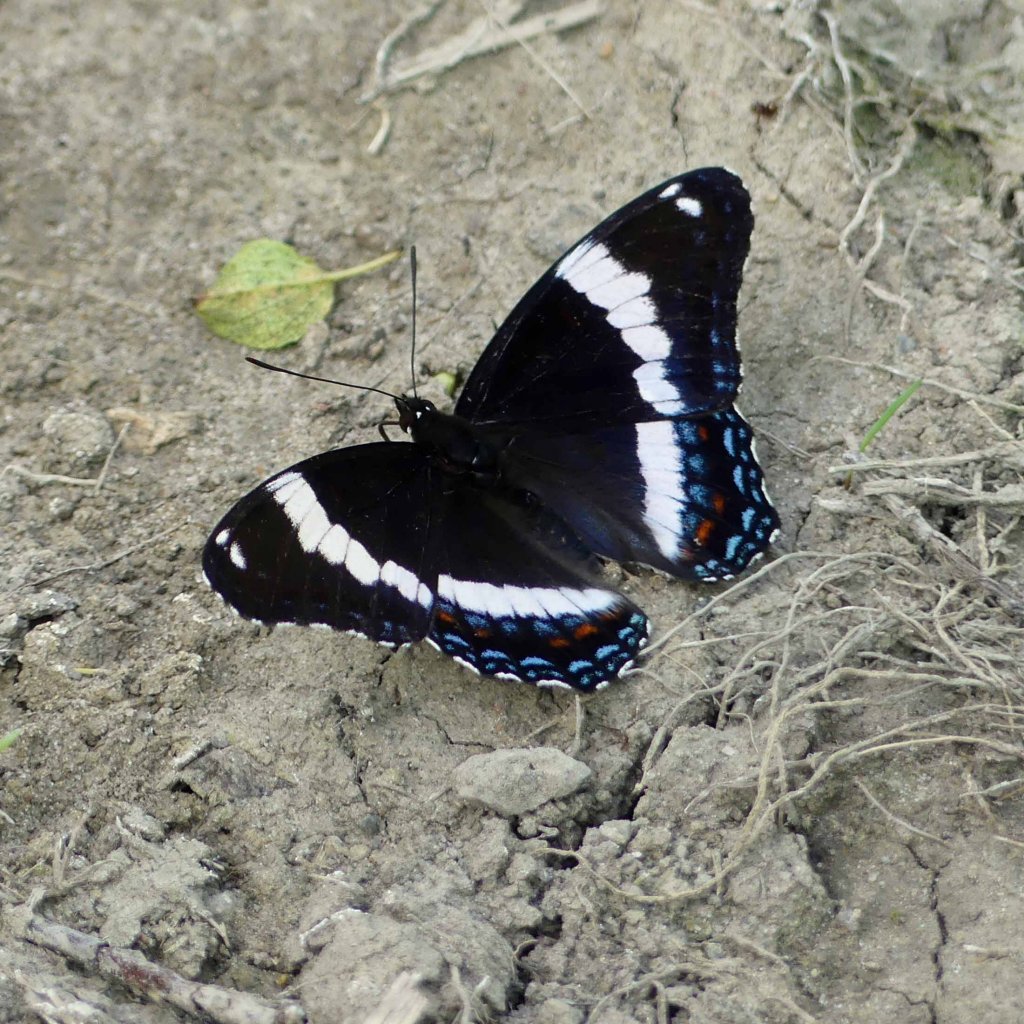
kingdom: Animalia
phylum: Arthropoda
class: Insecta
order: Lepidoptera
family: Nymphalidae
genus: Limenitis
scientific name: Limenitis arthemis
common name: Red-spotted Admiral
